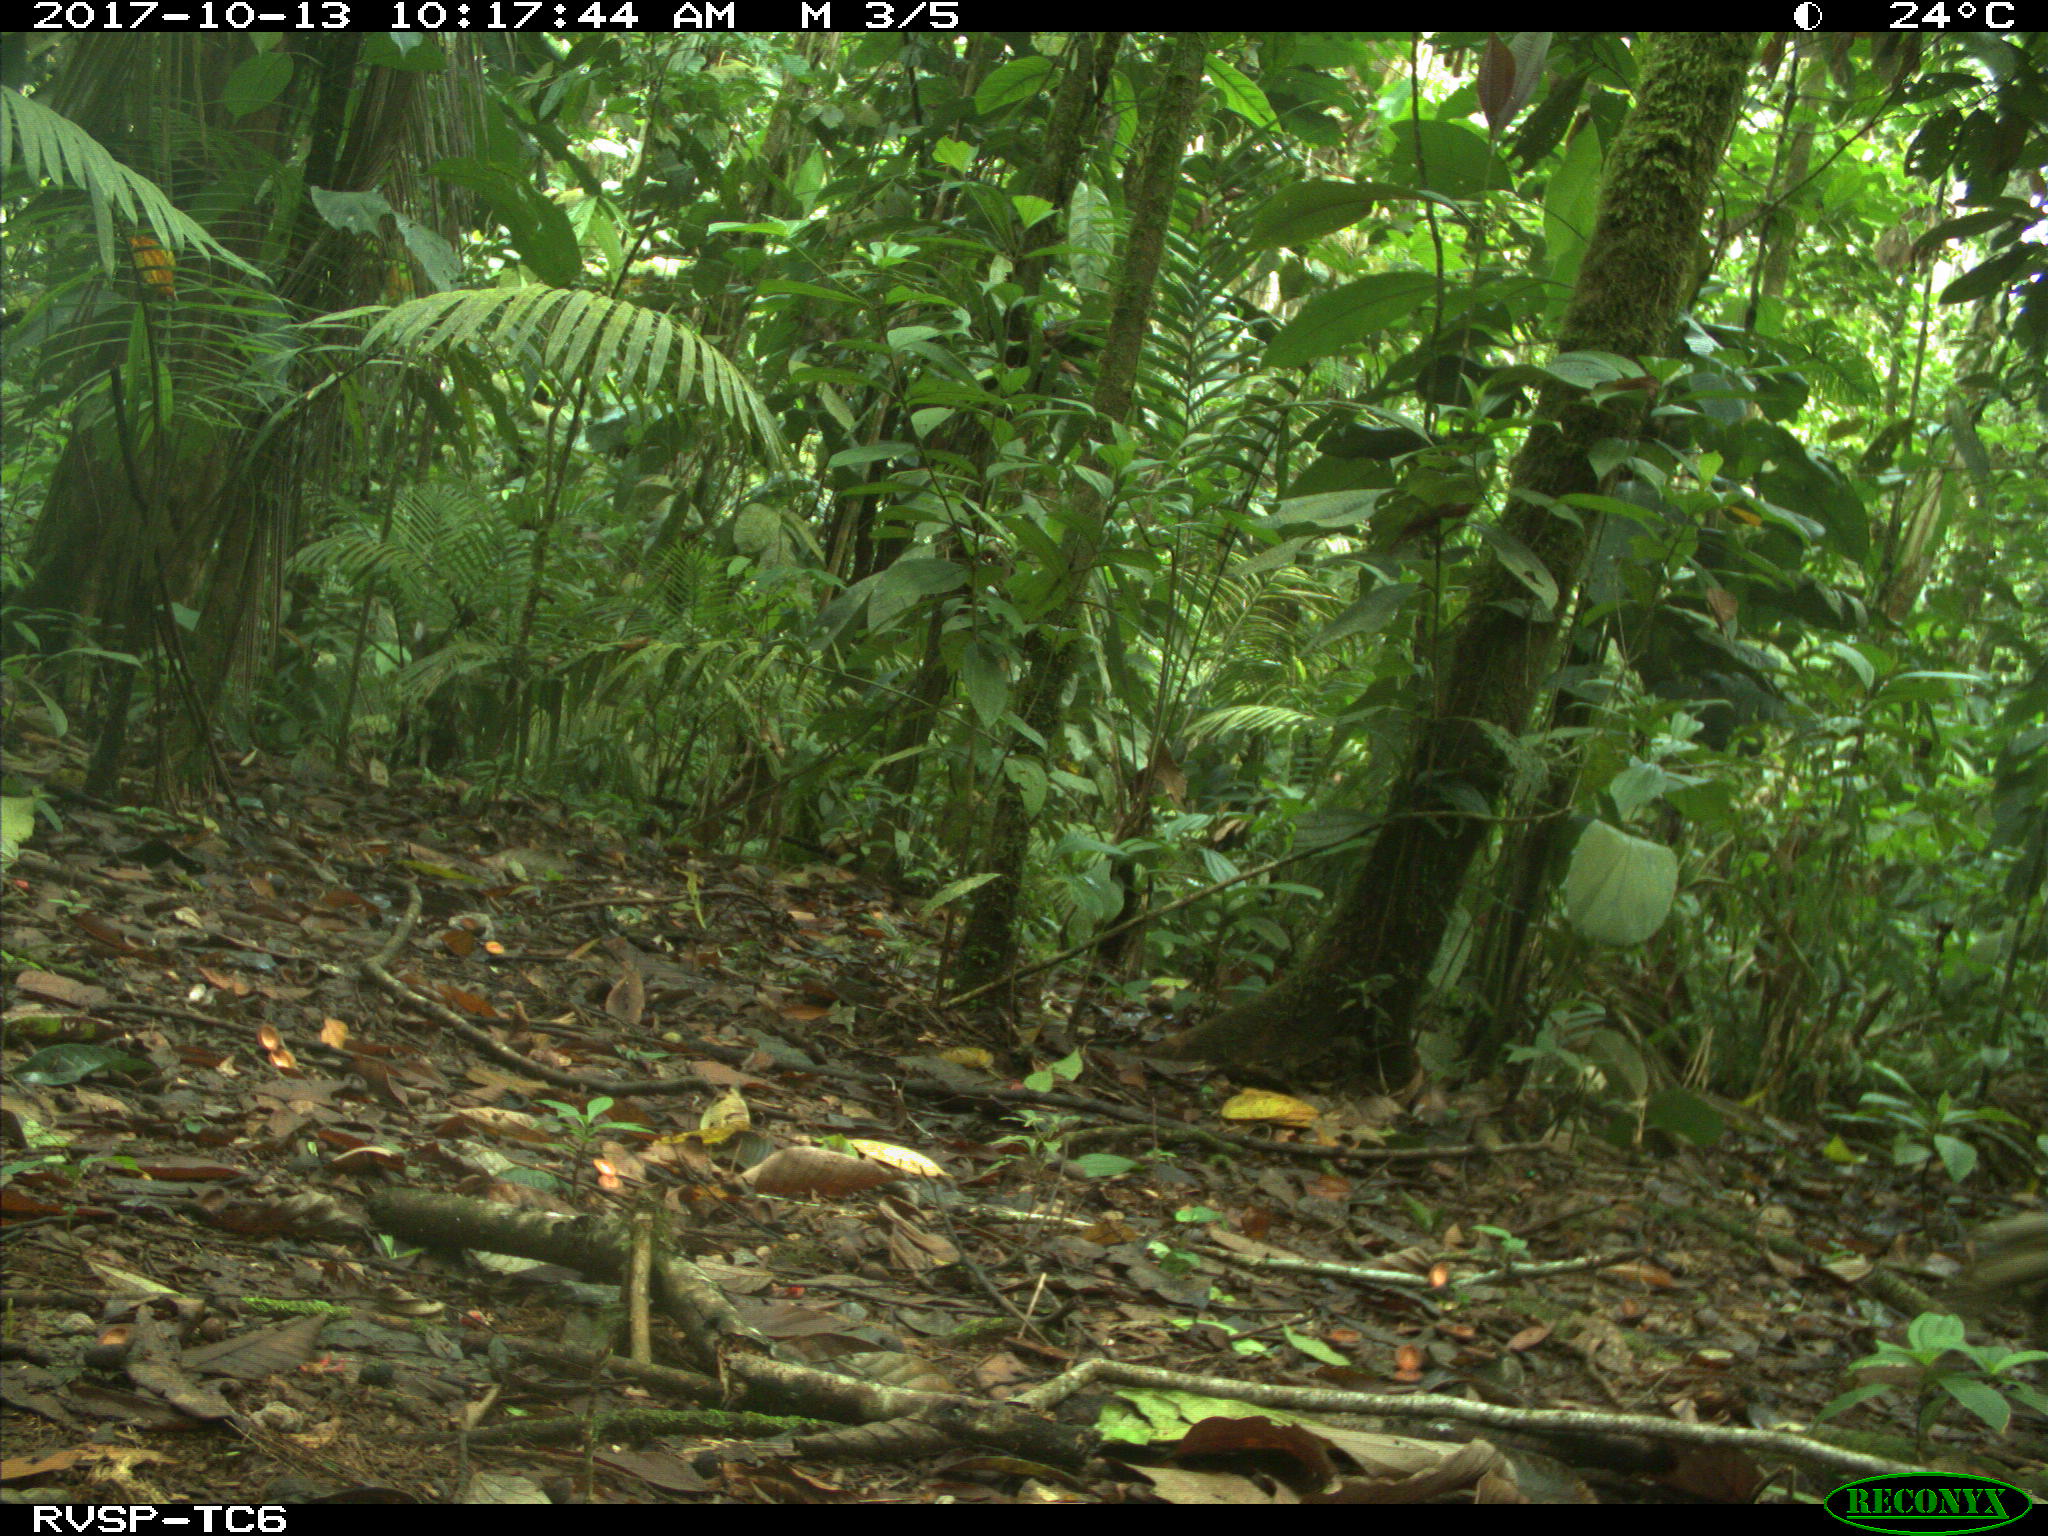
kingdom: Animalia
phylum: Chordata
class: Mammalia
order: Artiodactyla
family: Tayassuidae
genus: Tayassu
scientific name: Tayassu pecari
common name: White-lipped peccary
